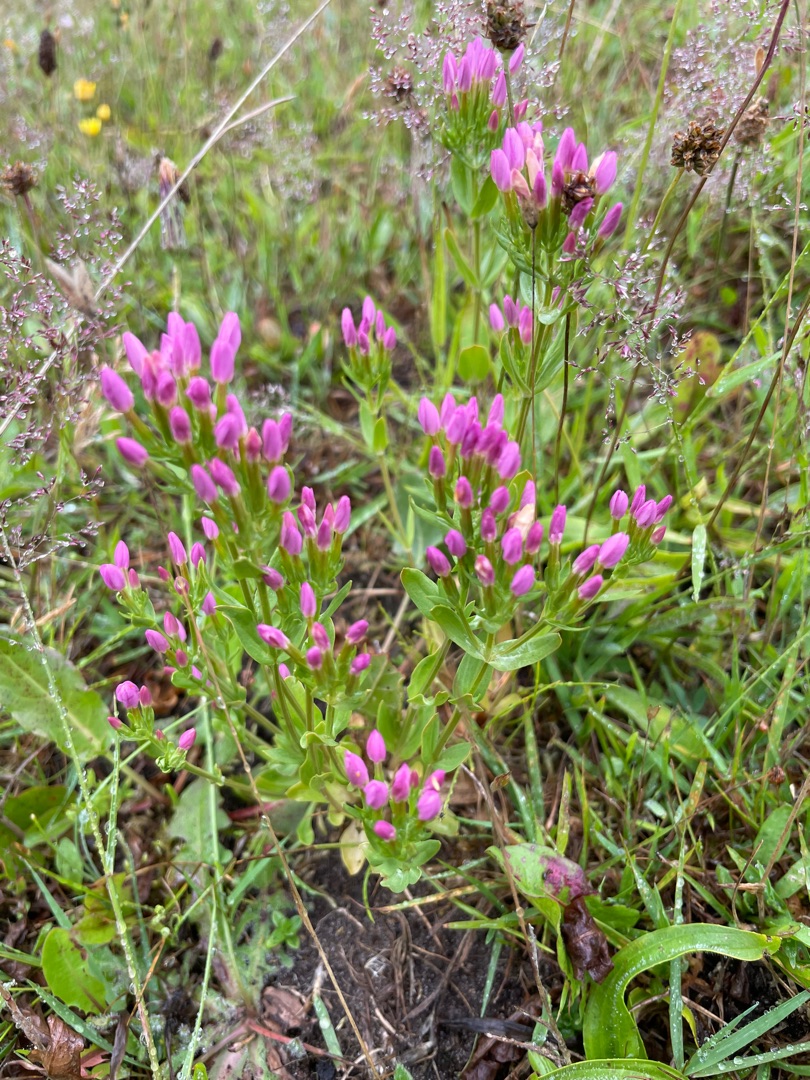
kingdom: Plantae
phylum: Tracheophyta
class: Magnoliopsida
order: Gentianales
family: Gentianaceae
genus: Centaurium
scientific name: Centaurium erythraea
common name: Mark-tusindgylden
